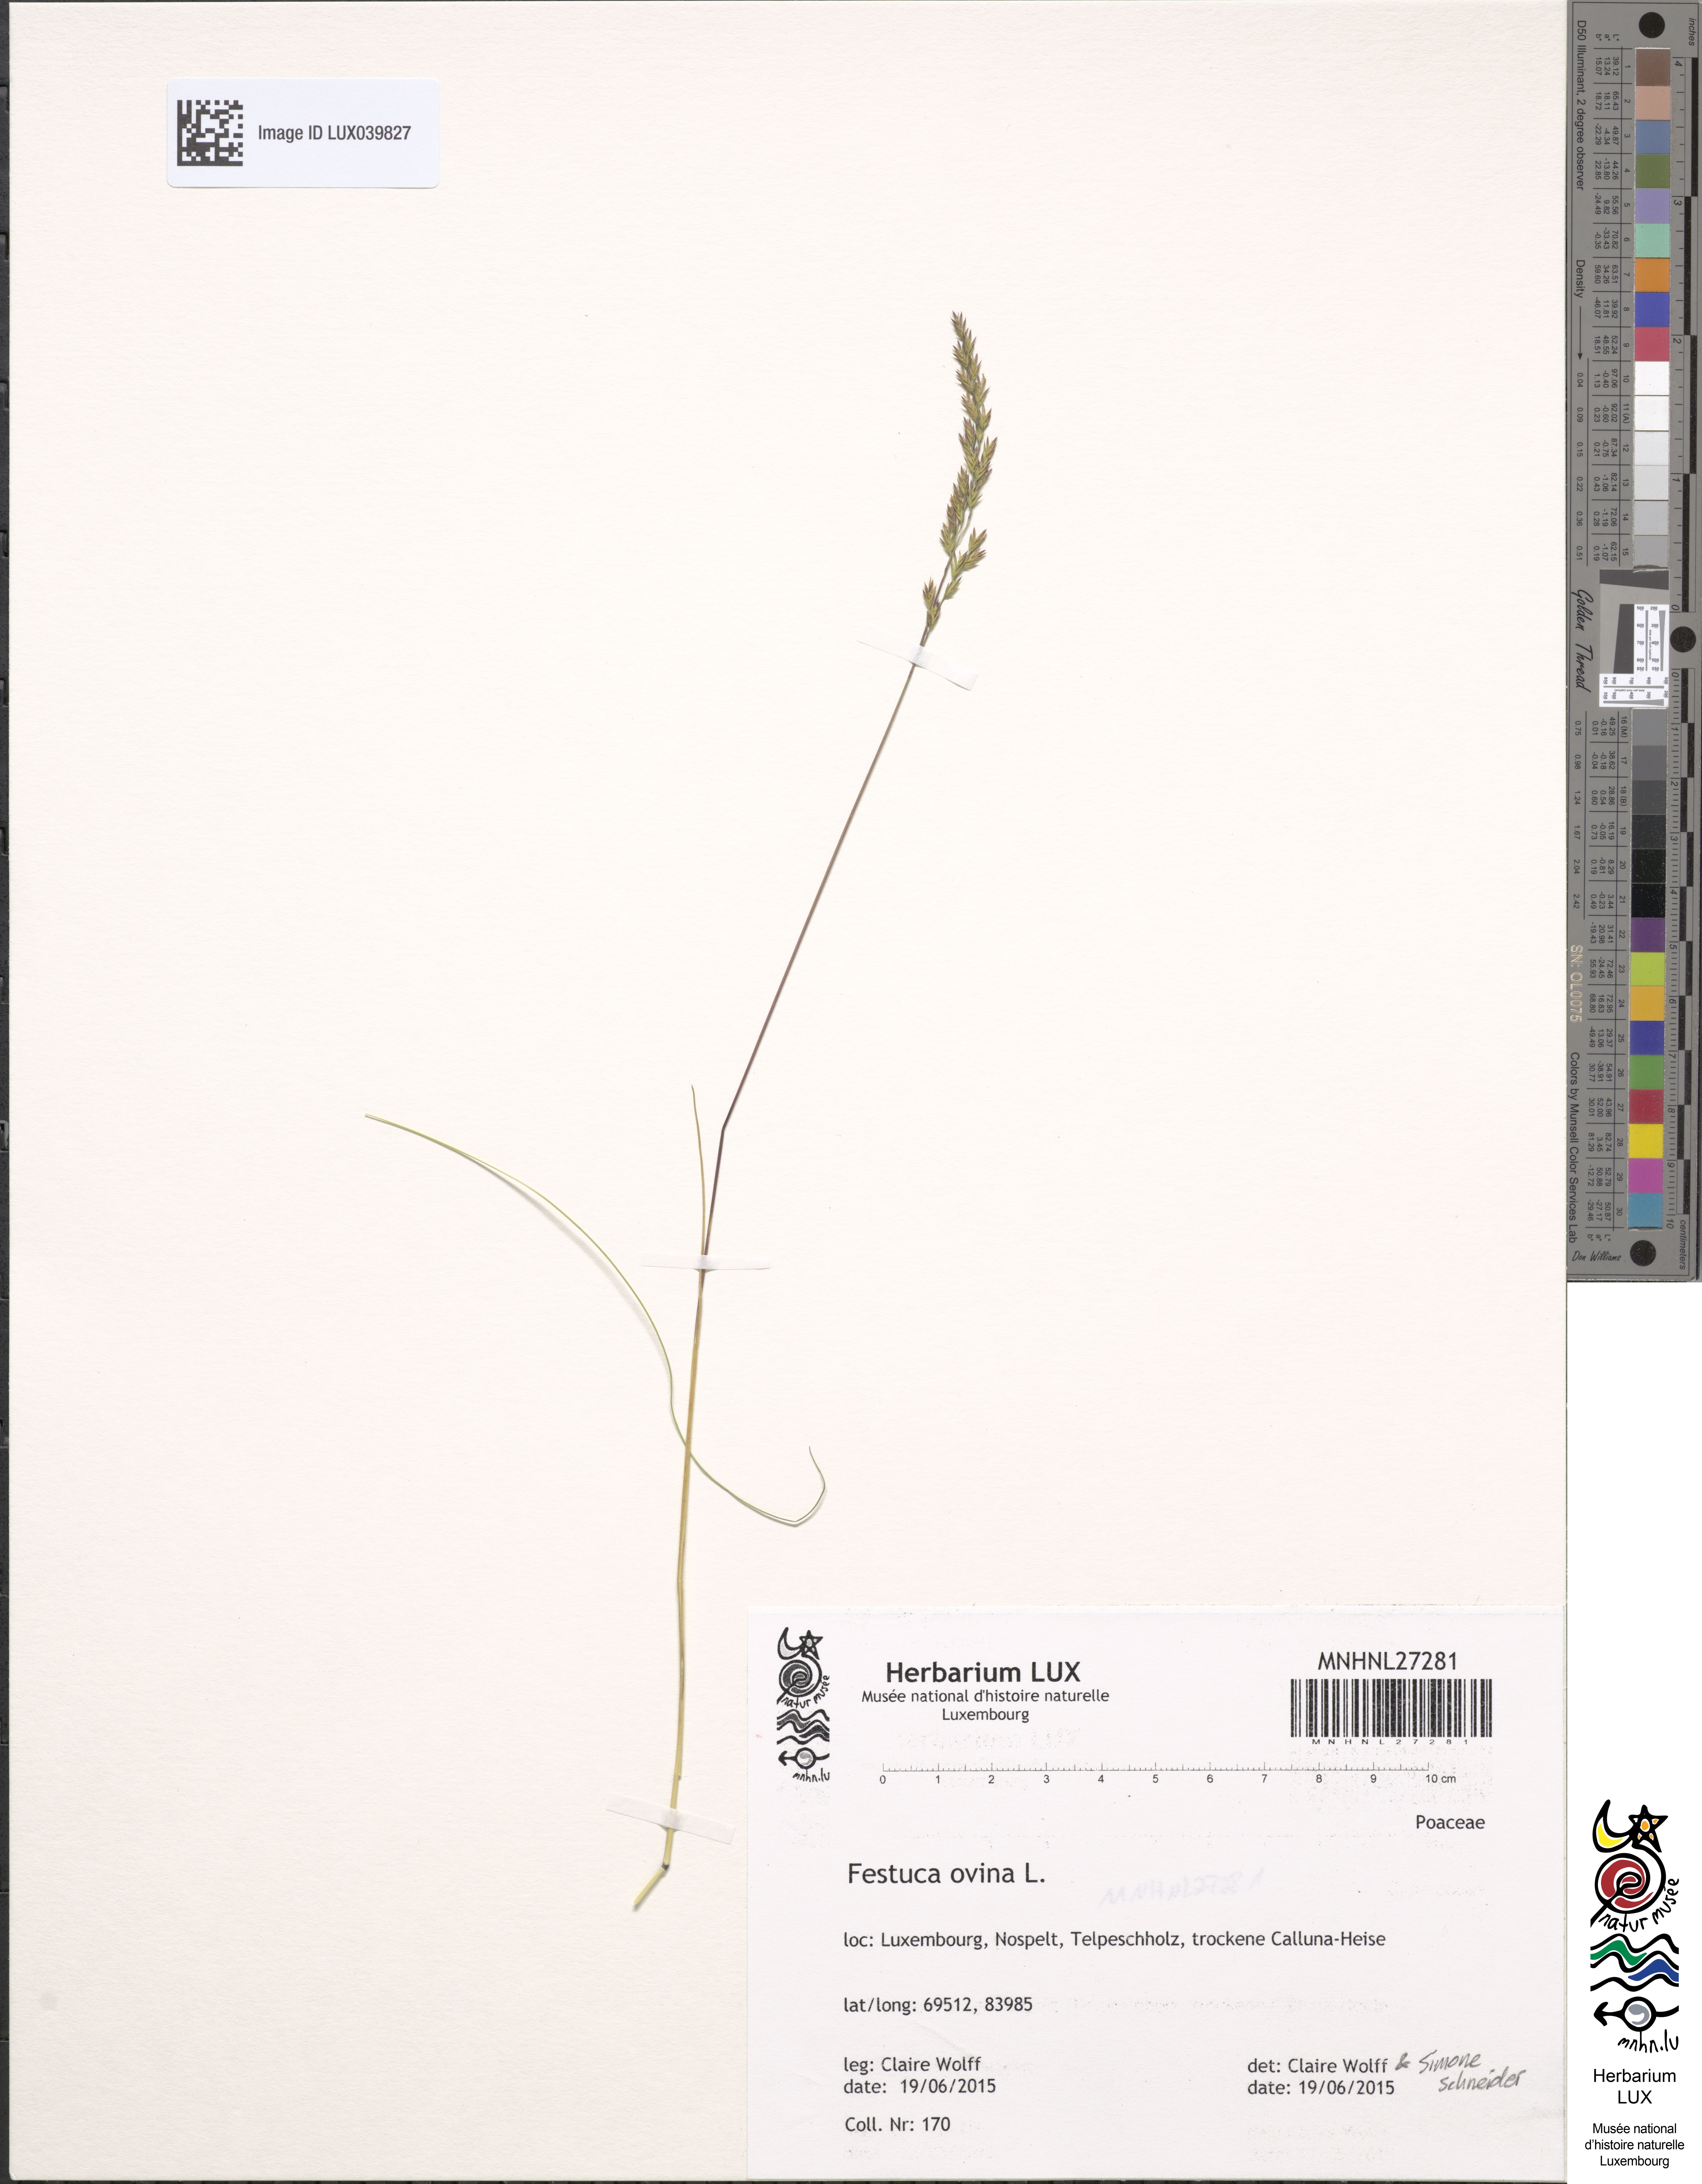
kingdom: Plantae
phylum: Tracheophyta
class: Liliopsida
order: Poales
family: Poaceae
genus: Festuca
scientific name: Festuca ovina
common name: Sheep fescue
